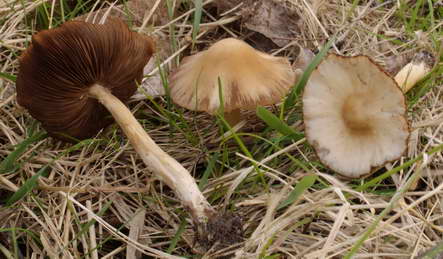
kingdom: Fungi
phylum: Basidiomycota
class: Agaricomycetes
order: Agaricales
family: Psathyrellaceae
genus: Psathyrella
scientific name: Psathyrella spadiceogrisea
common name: gråbrun mørkhat
